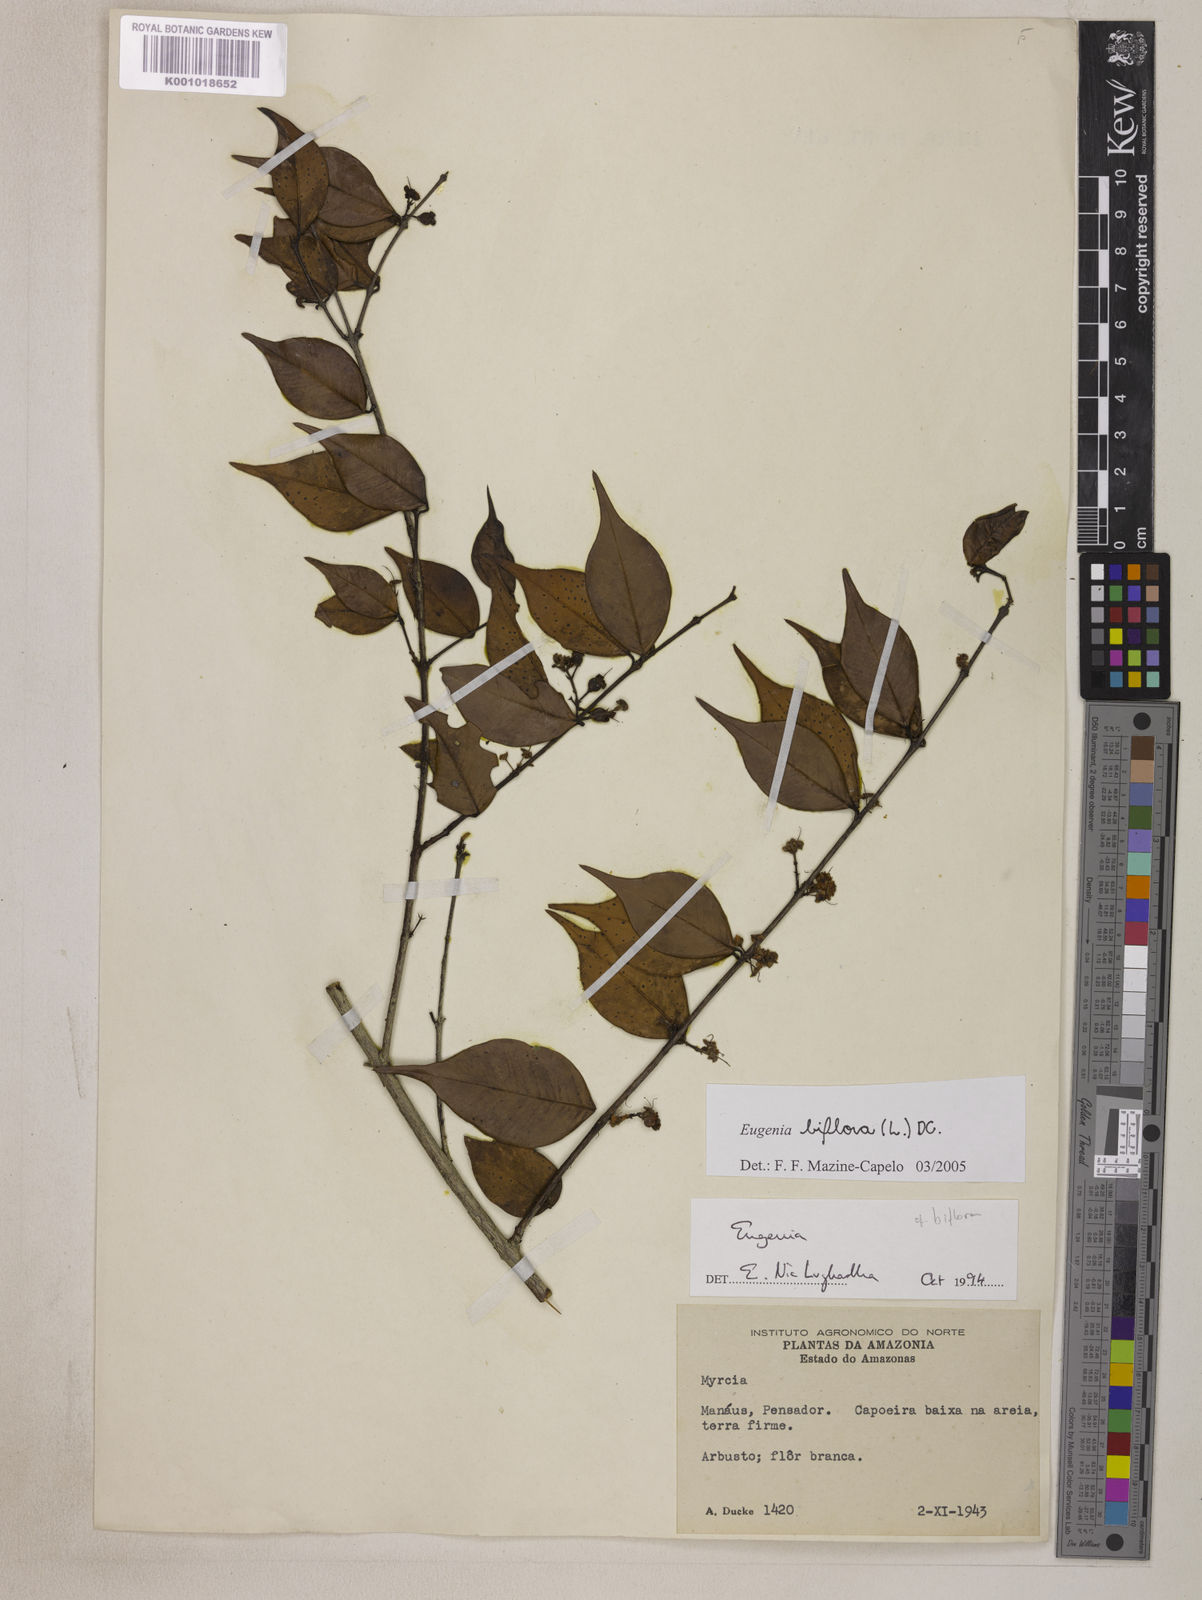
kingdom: Plantae
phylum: Tracheophyta
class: Magnoliopsida
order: Myrtales
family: Myrtaceae
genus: Eugenia
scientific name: Eugenia biflora
